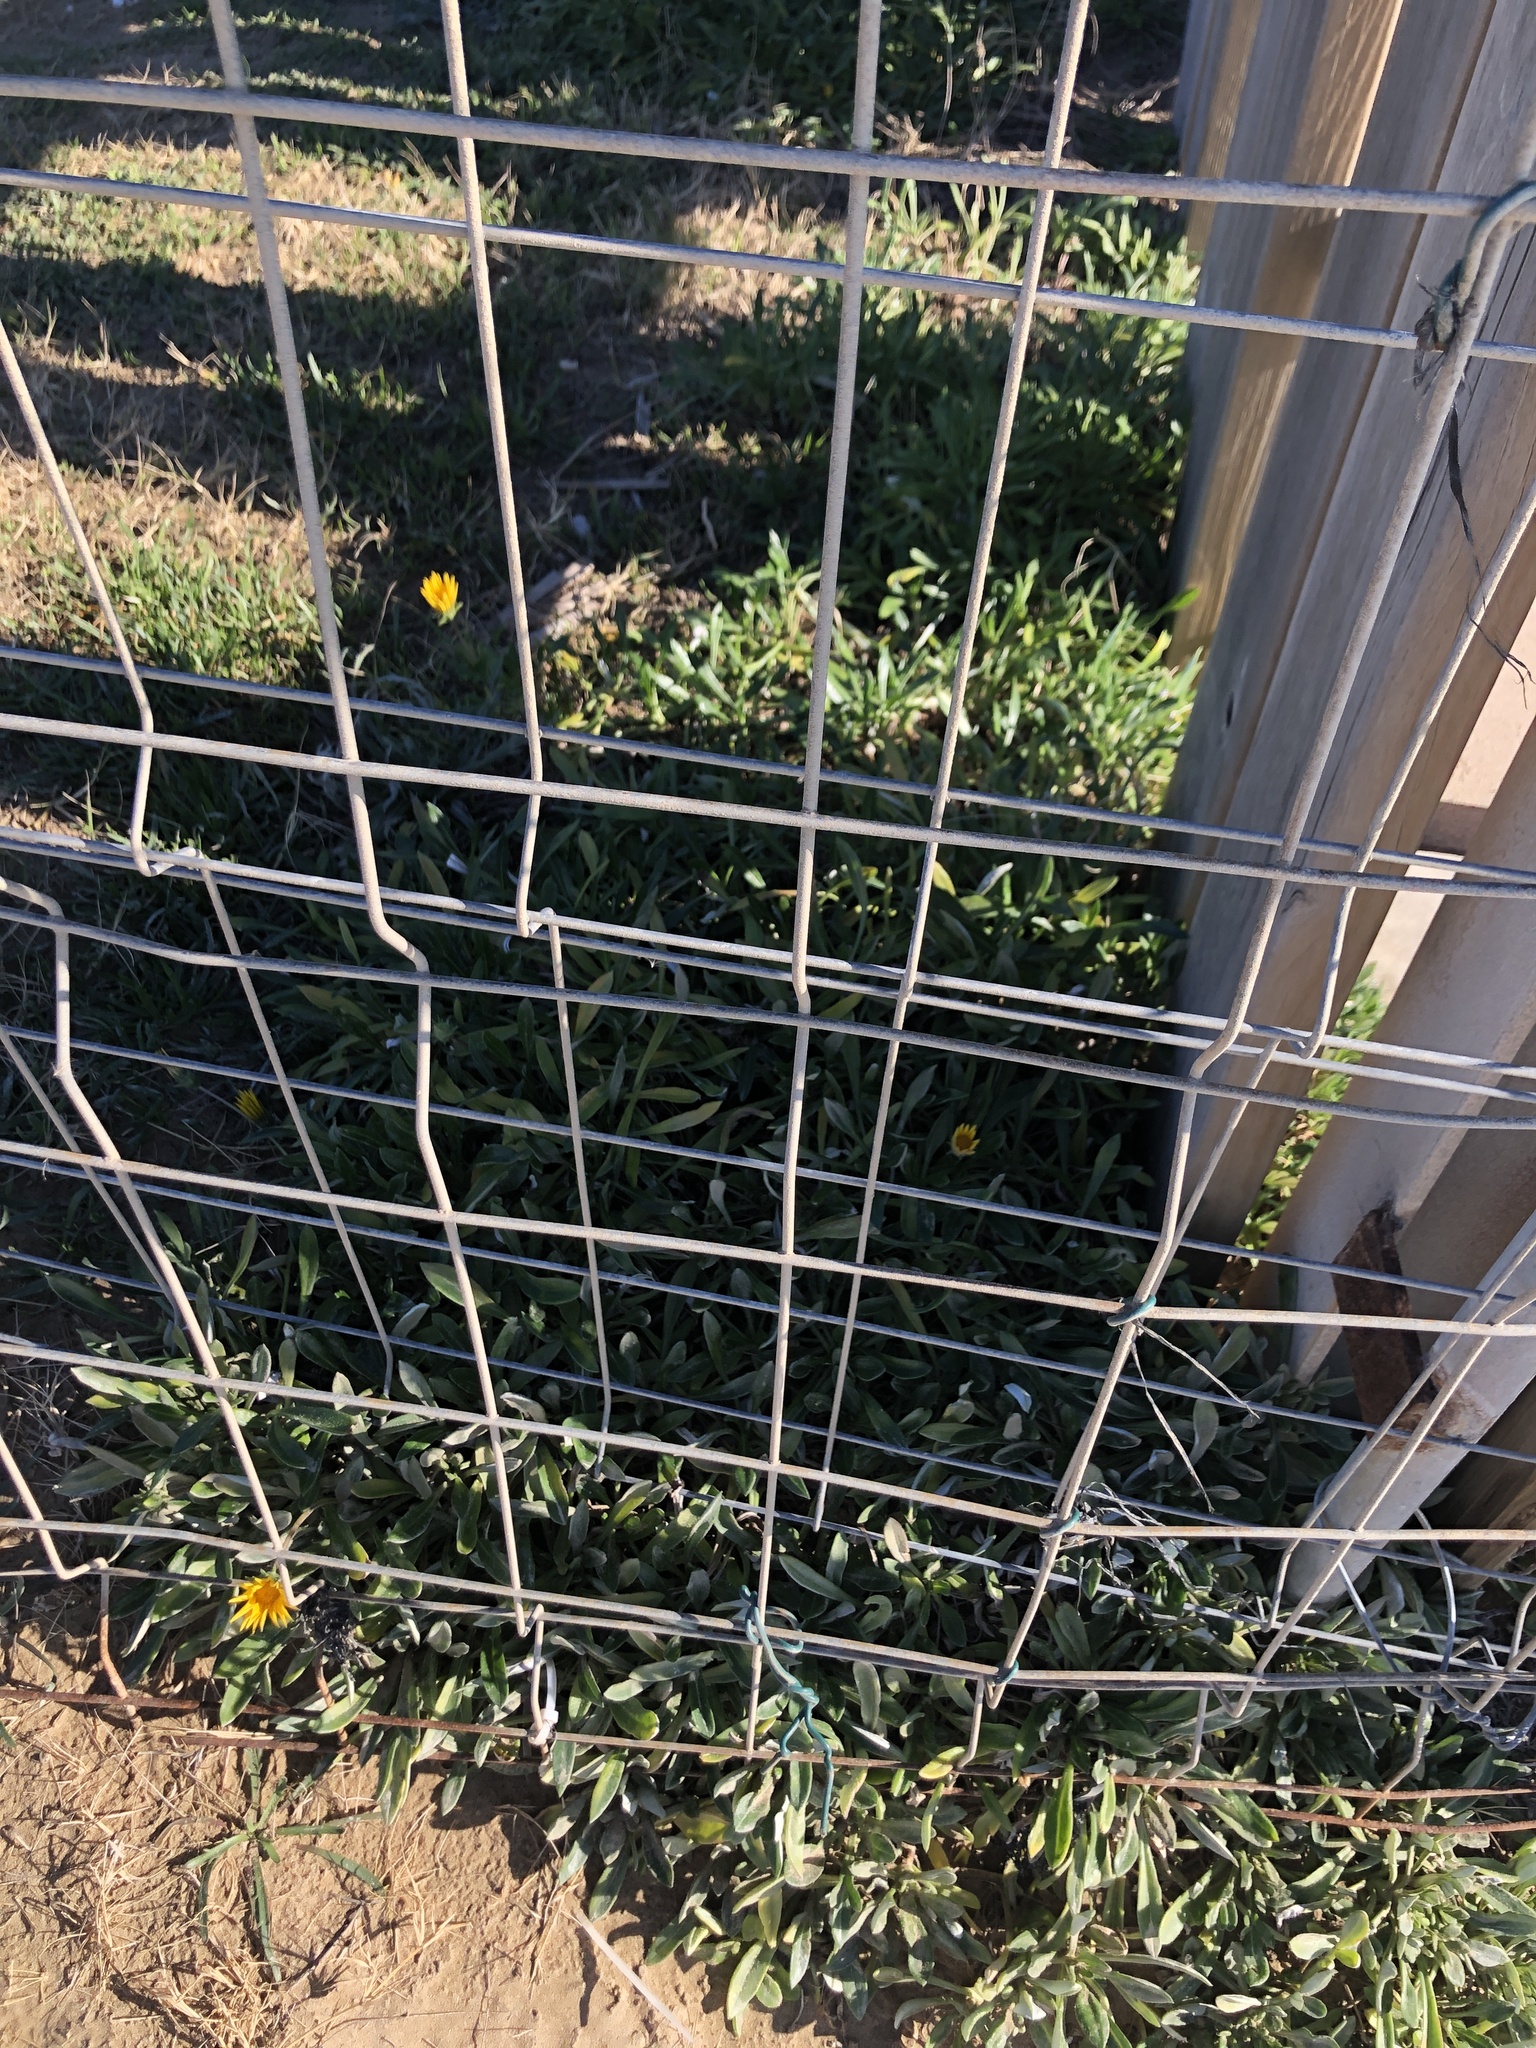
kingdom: Plantae
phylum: Tracheophyta
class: Magnoliopsida
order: Asterales
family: Asteraceae
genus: Gazania
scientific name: Gazania rigens
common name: Treasureflower
